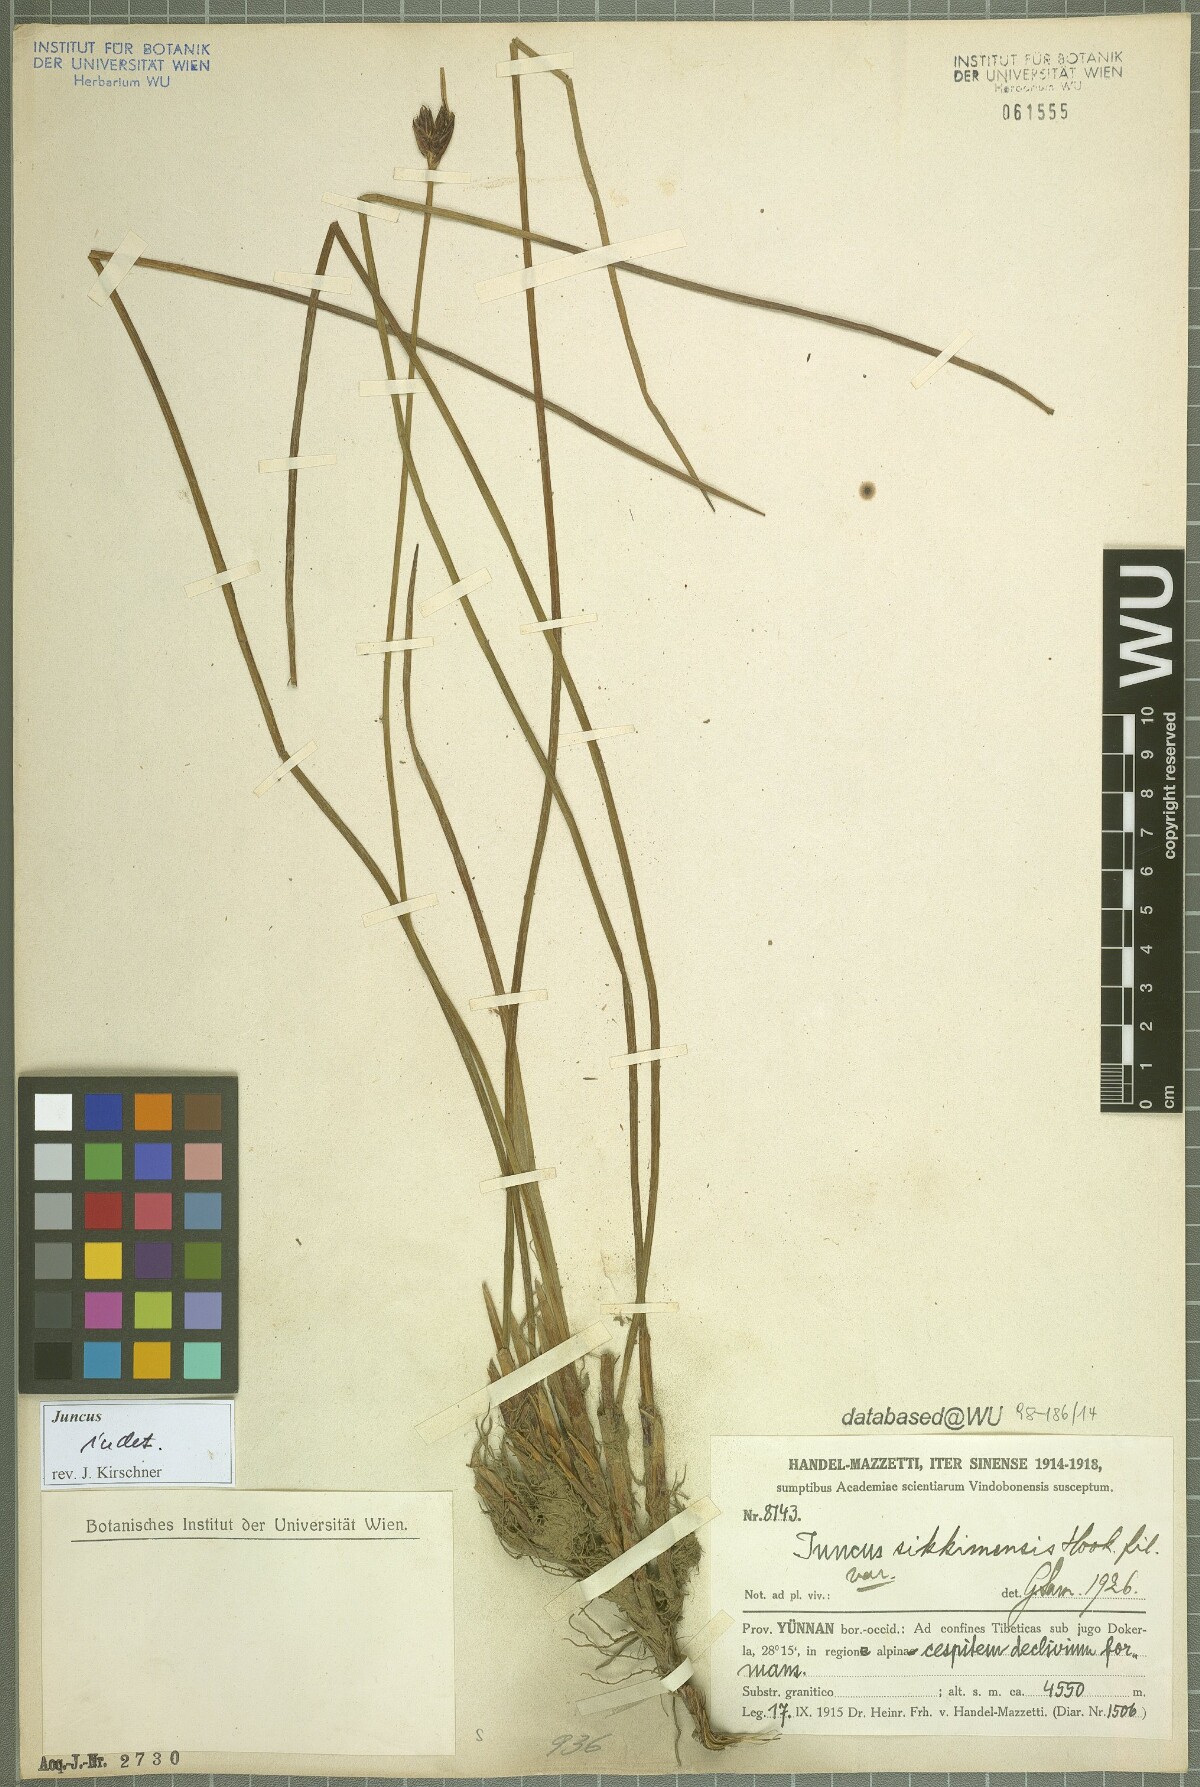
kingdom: Plantae
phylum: Tracheophyta
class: Liliopsida
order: Poales
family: Juncaceae
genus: Juncus
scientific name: Juncus
